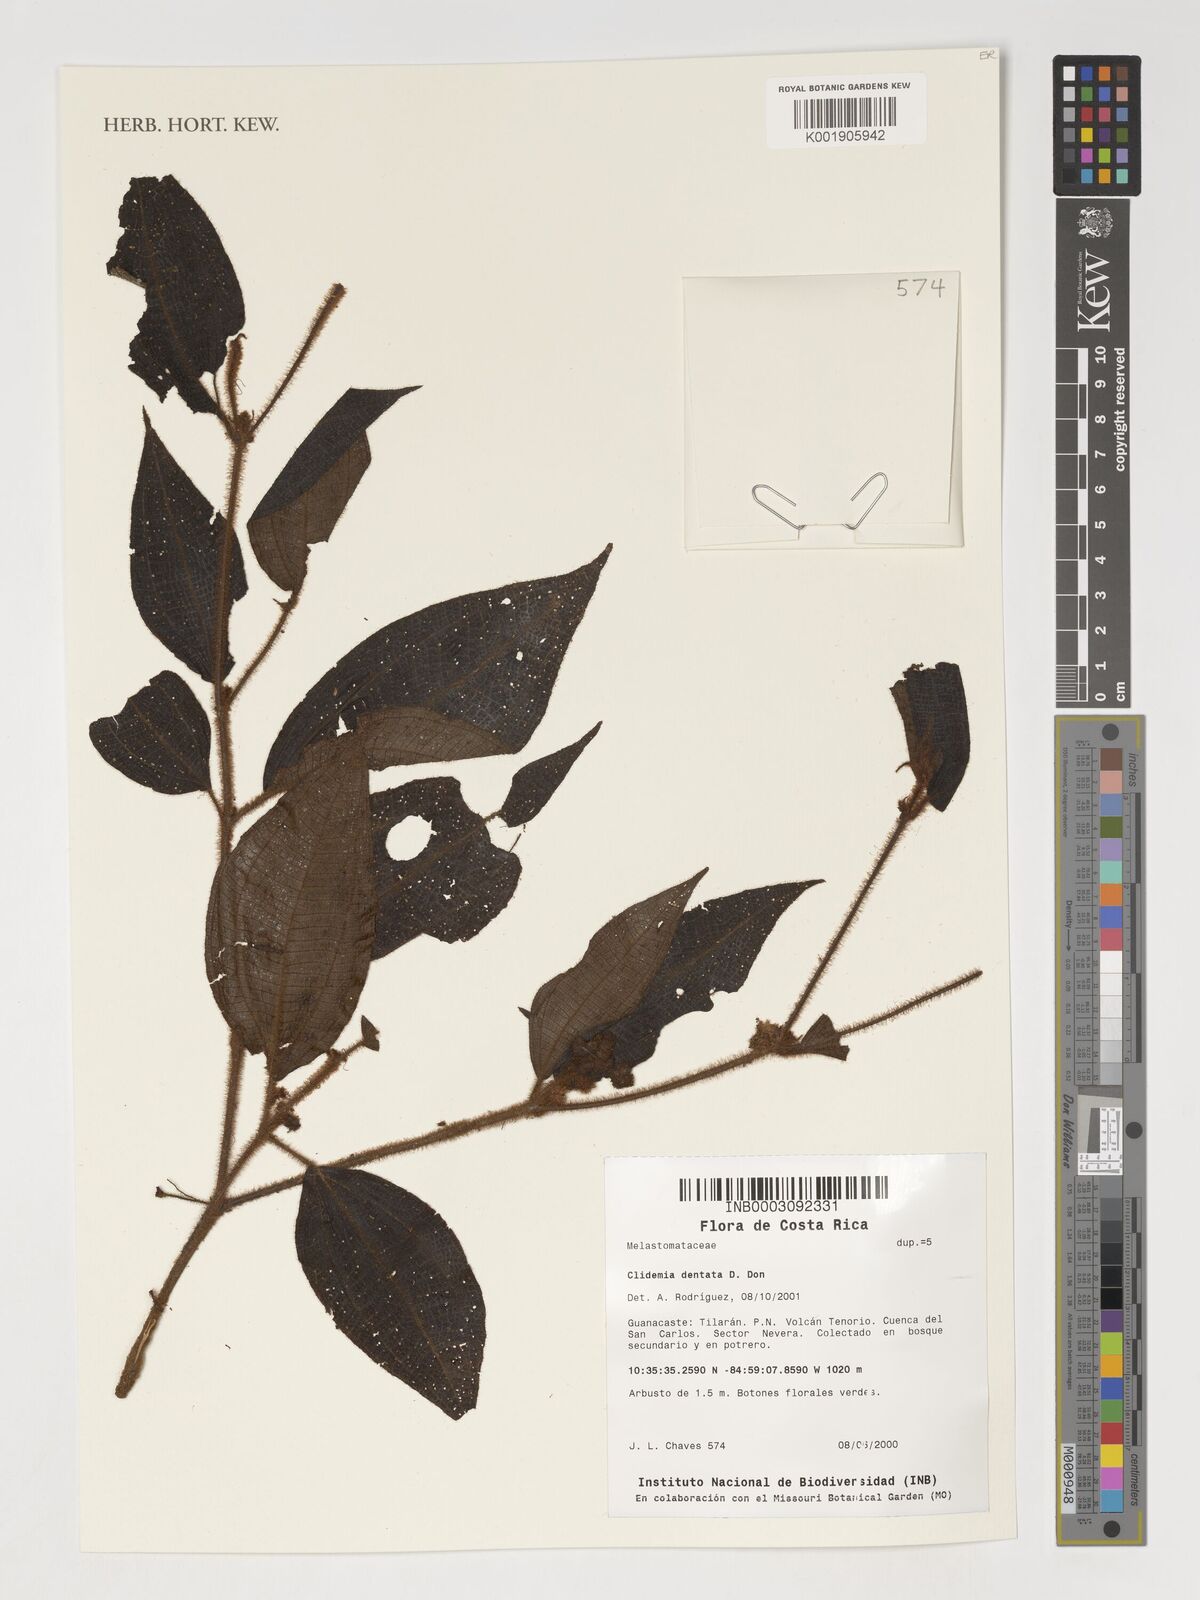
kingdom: Plantae
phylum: Tracheophyta
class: Magnoliopsida
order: Myrtales
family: Melastomataceae
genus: Miconia
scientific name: Miconia dentata
